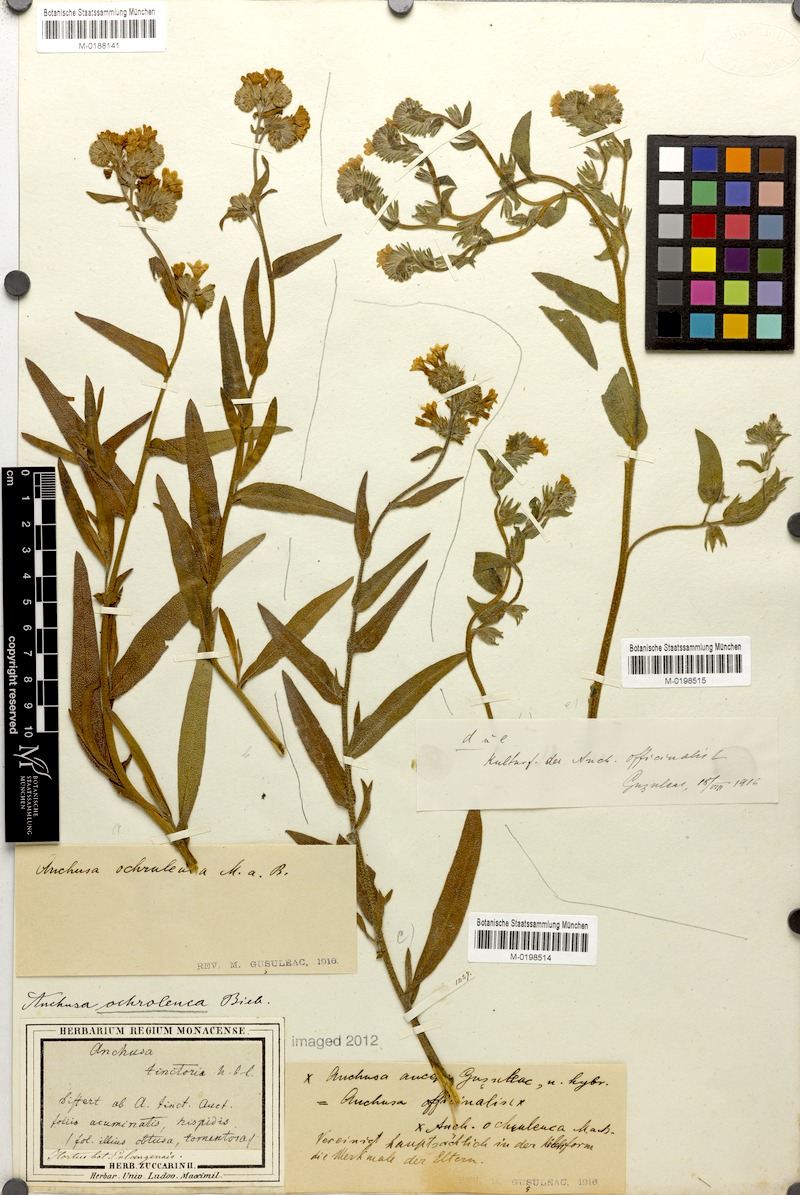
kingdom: Plantae
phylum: Tracheophyta
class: Magnoliopsida
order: Boraginales
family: Boraginaceae
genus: Anchusa
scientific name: Anchusa ochroleuca
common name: Yellow alkanet
